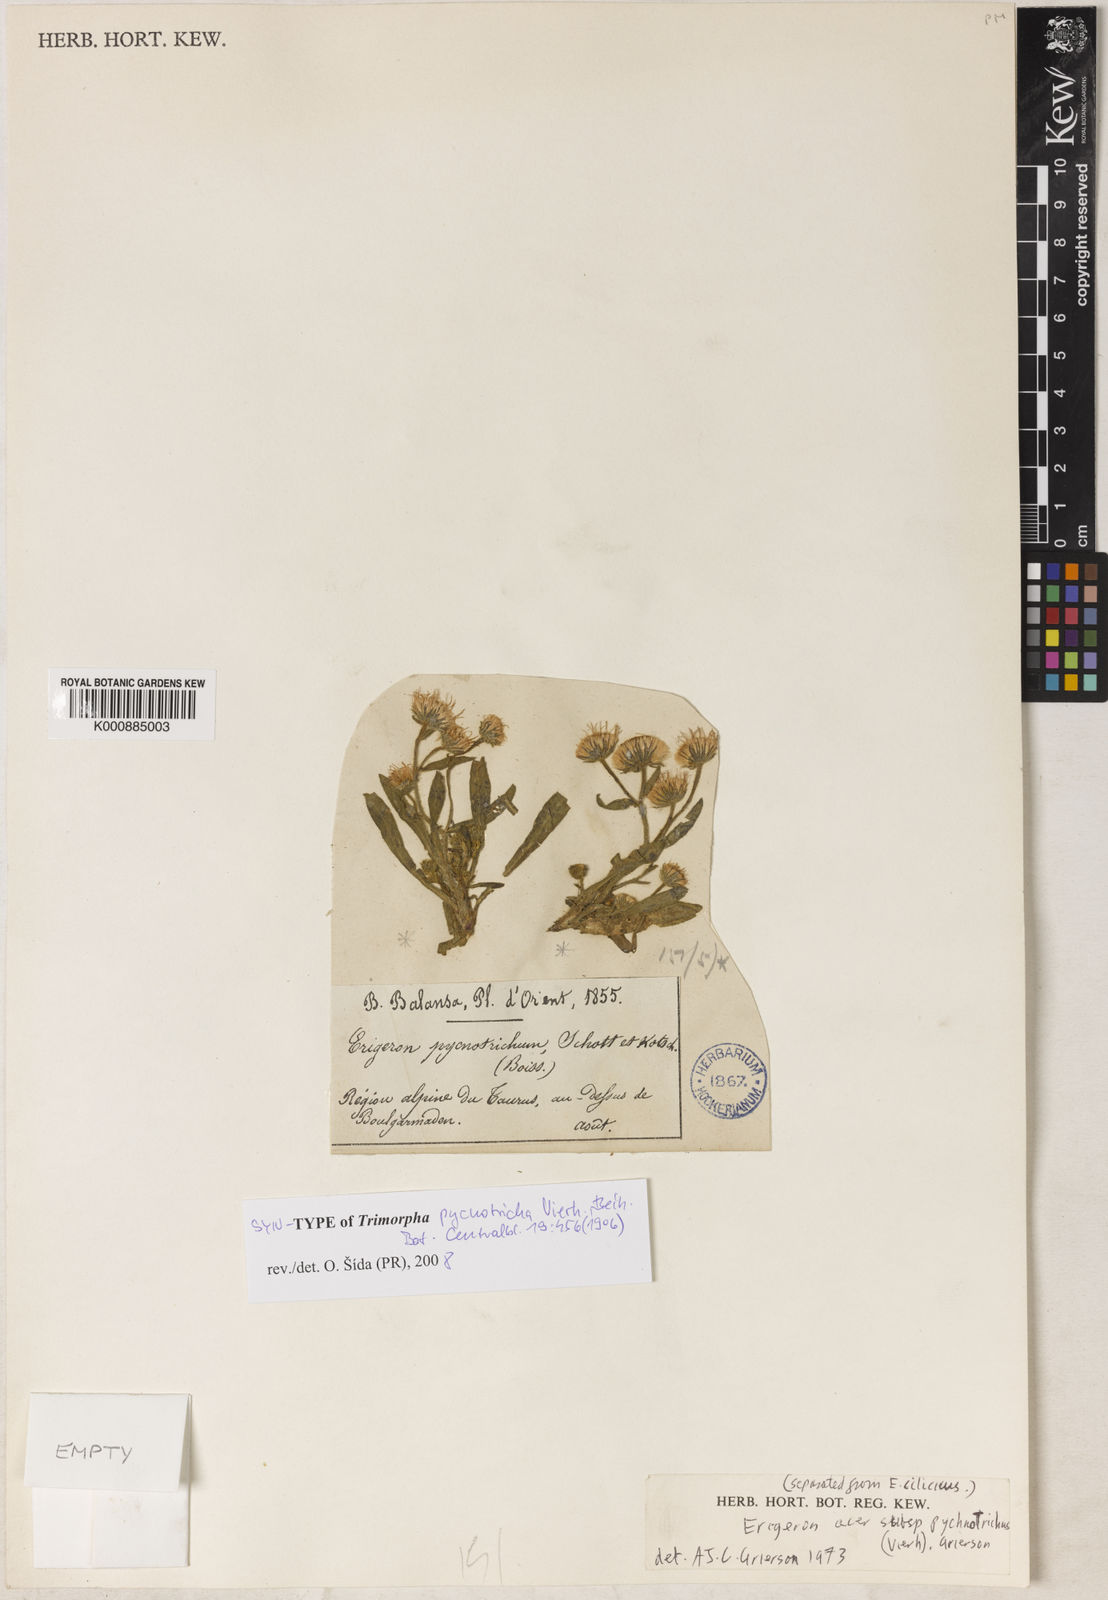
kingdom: Plantae
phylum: Tracheophyta
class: Magnoliopsida
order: Asterales
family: Asteraceae
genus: Erigeron
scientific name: Erigeron acris
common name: Blue fleabane
